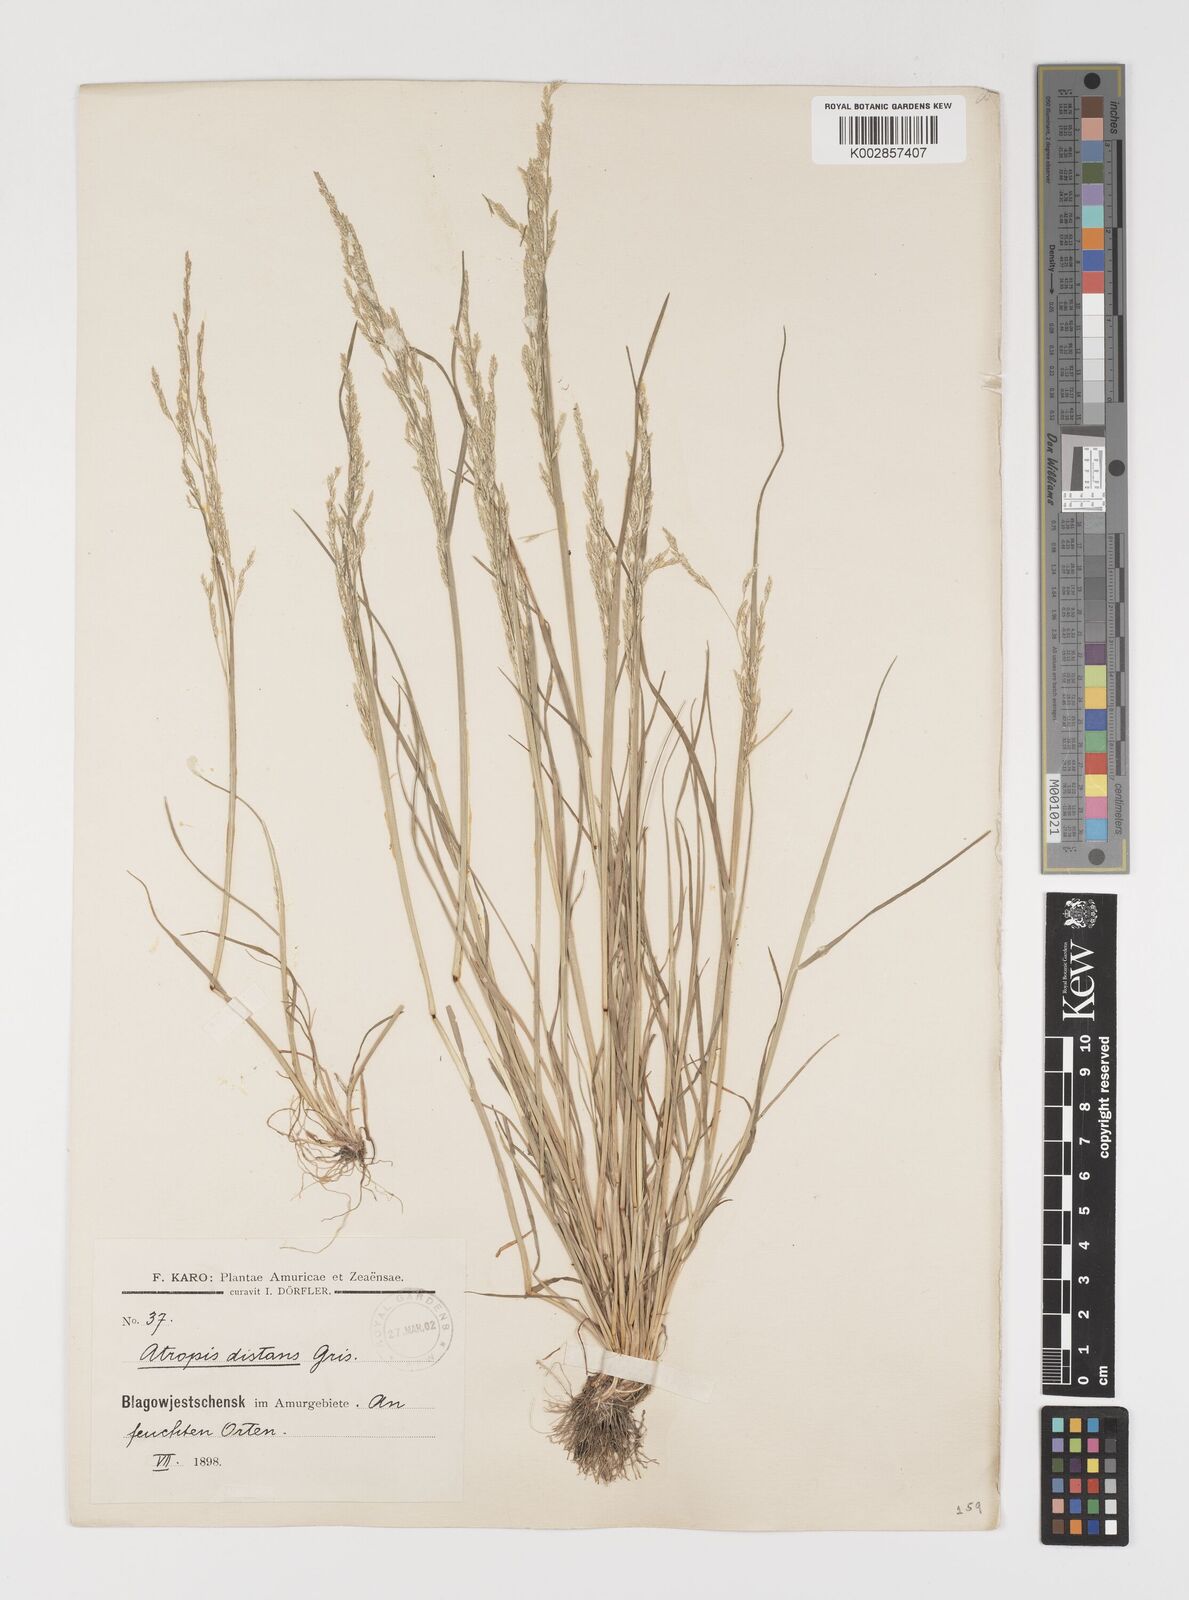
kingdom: Plantae
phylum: Tracheophyta
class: Liliopsida
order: Poales
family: Poaceae
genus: Puccinellia
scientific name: Puccinellia distans
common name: Weeping alkaligrass
